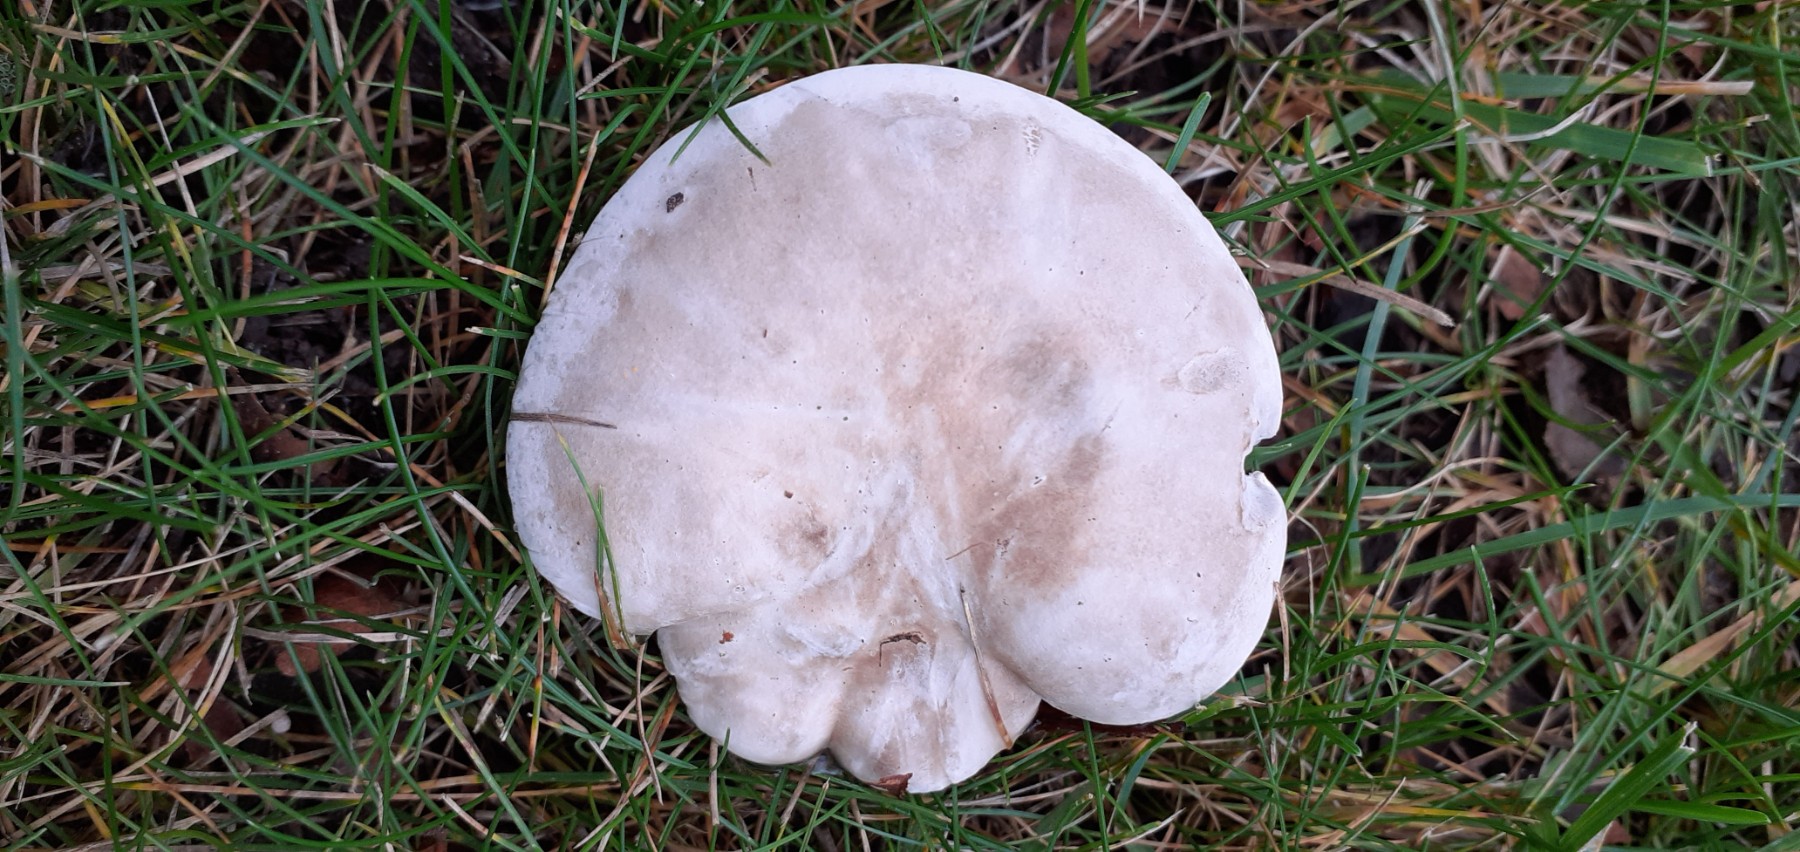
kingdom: Fungi
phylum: Basidiomycota
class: Agaricomycetes
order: Agaricales
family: Entolomataceae
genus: Clitopilus
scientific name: Clitopilus prunulus
